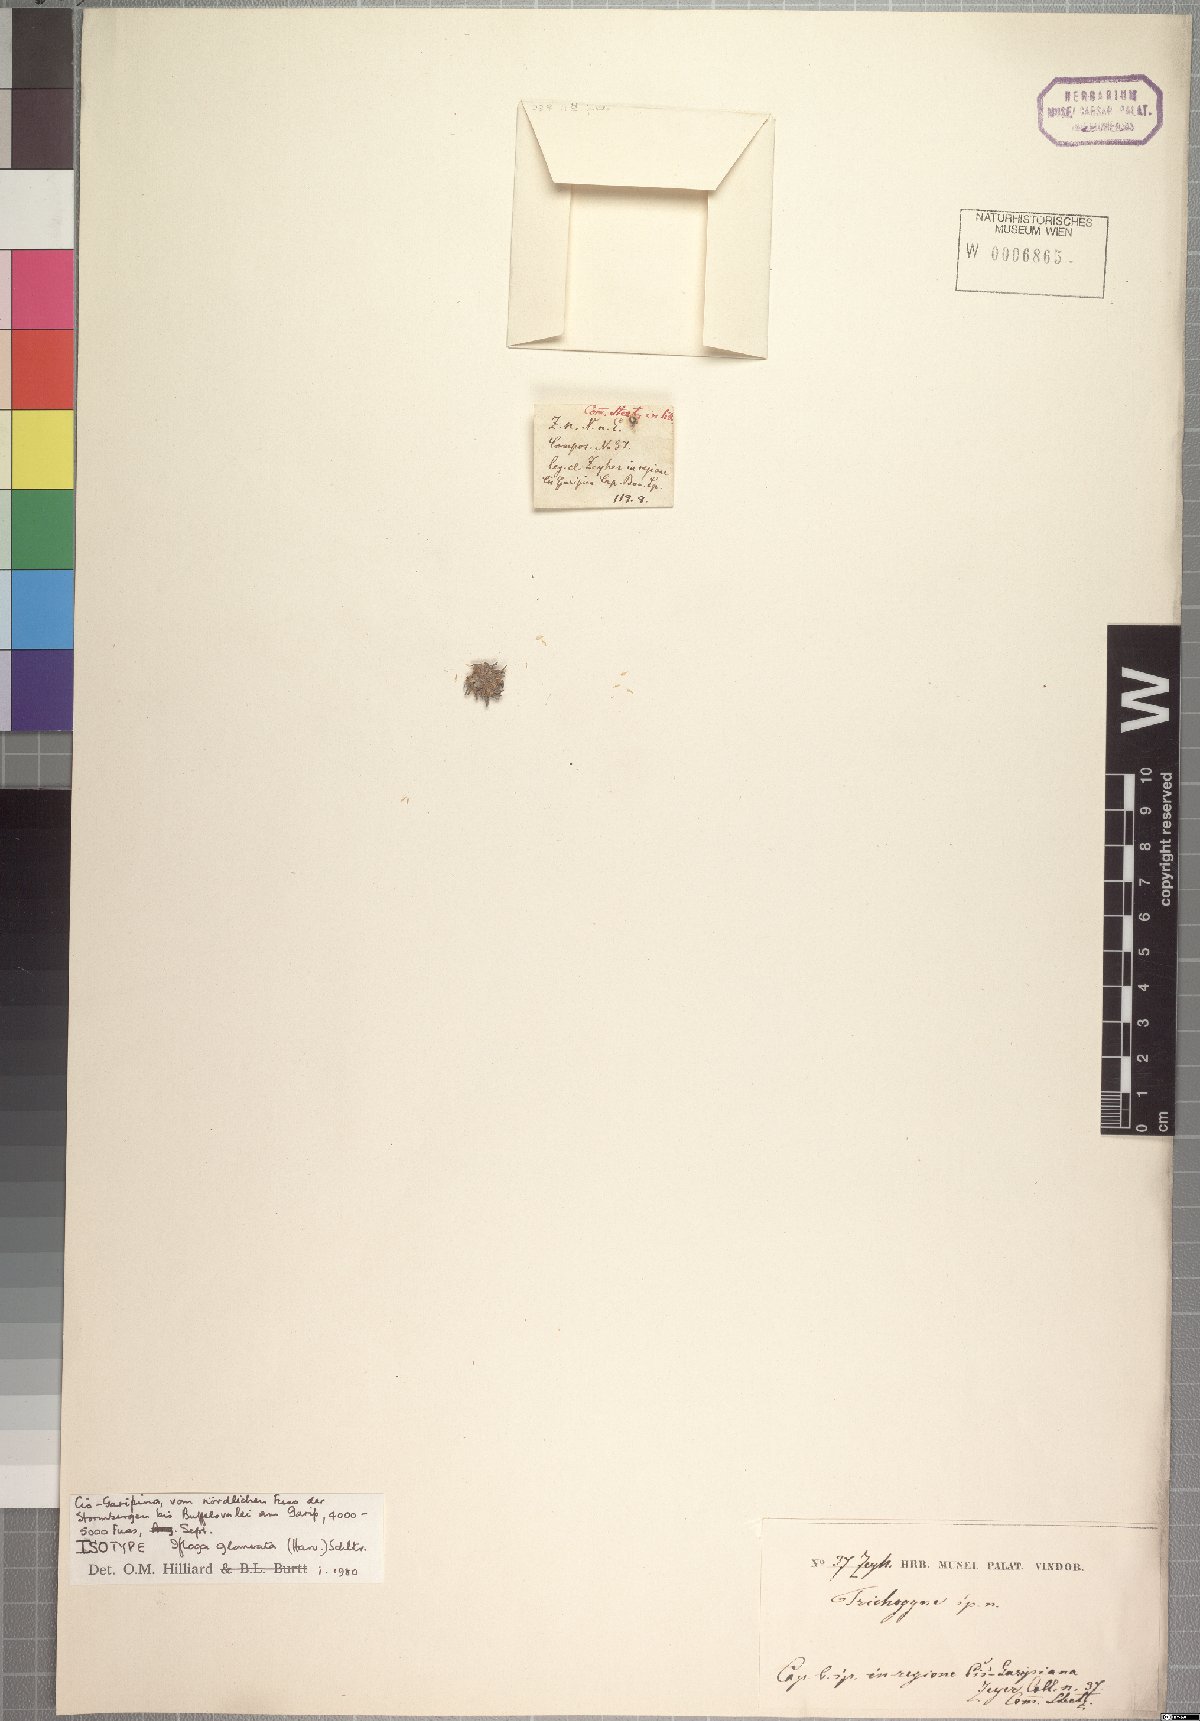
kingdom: Plantae
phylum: Tracheophyta
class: Magnoliopsida
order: Asterales
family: Asteraceae
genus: Ifloga
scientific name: Ifloga glomerata
